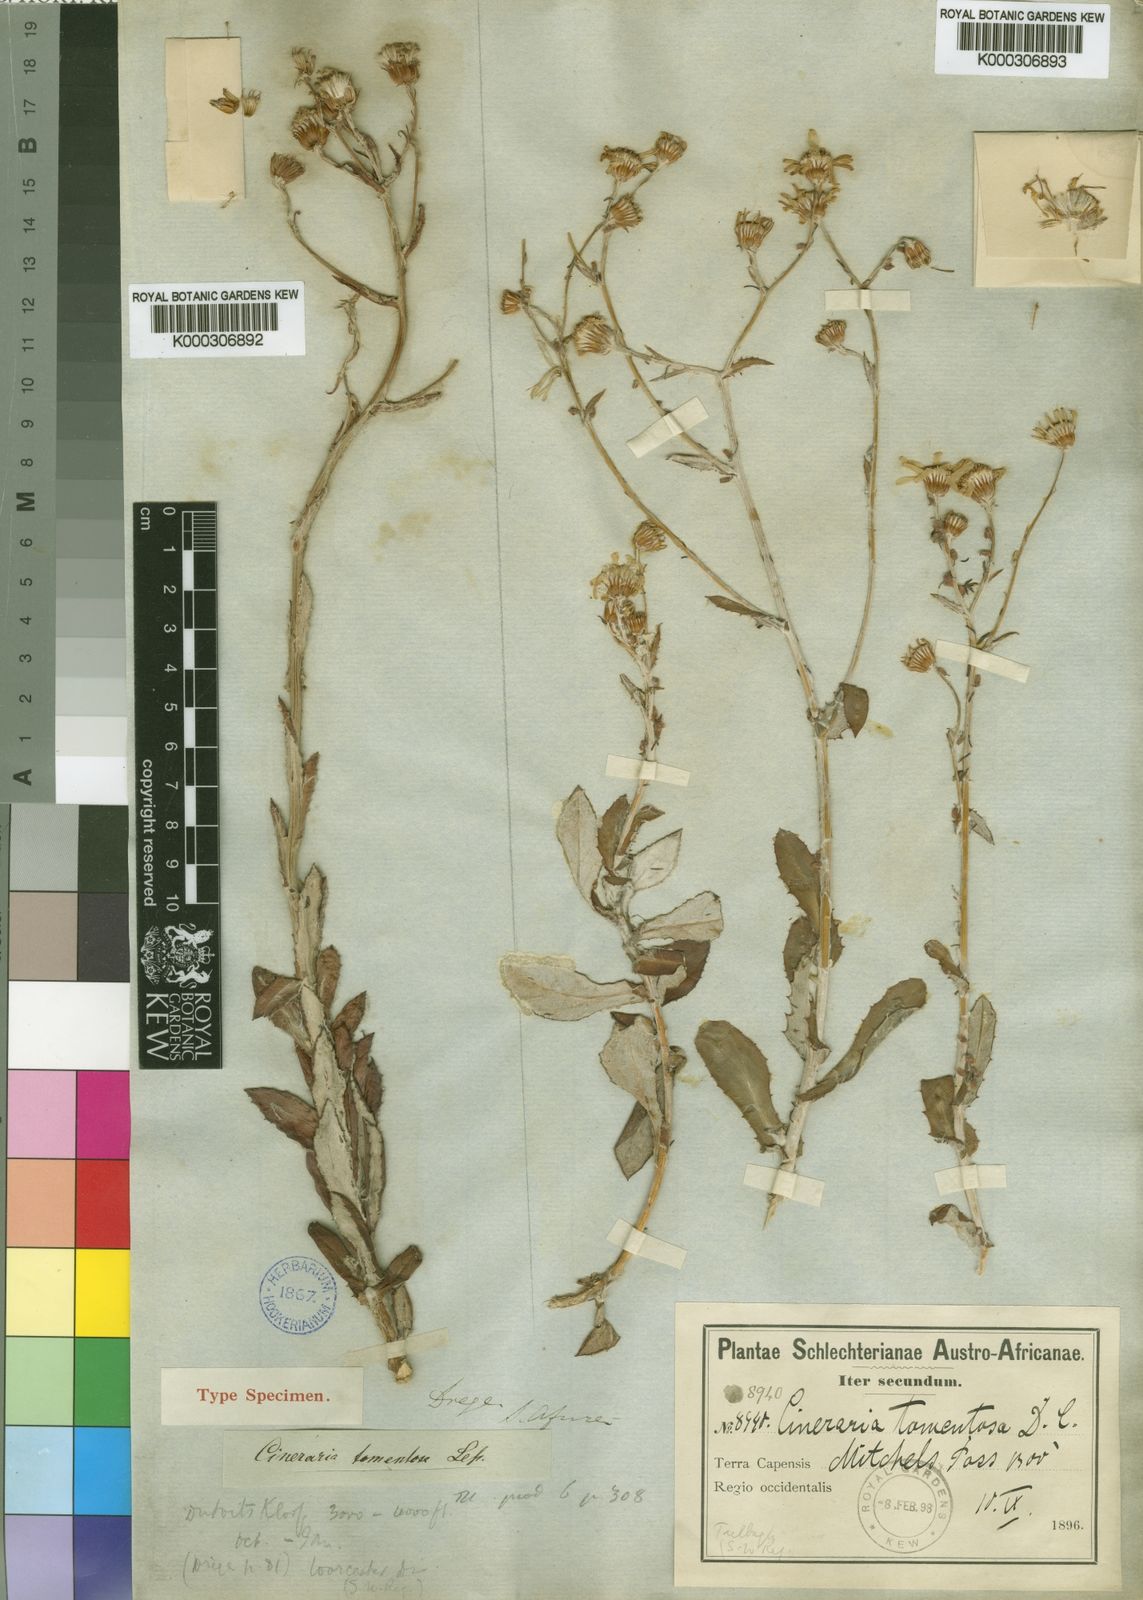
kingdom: Plantae
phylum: Tracheophyta
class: Magnoliopsida
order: Asterales
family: Asteraceae
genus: Cineraria
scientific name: Cineraria tomentolanata
